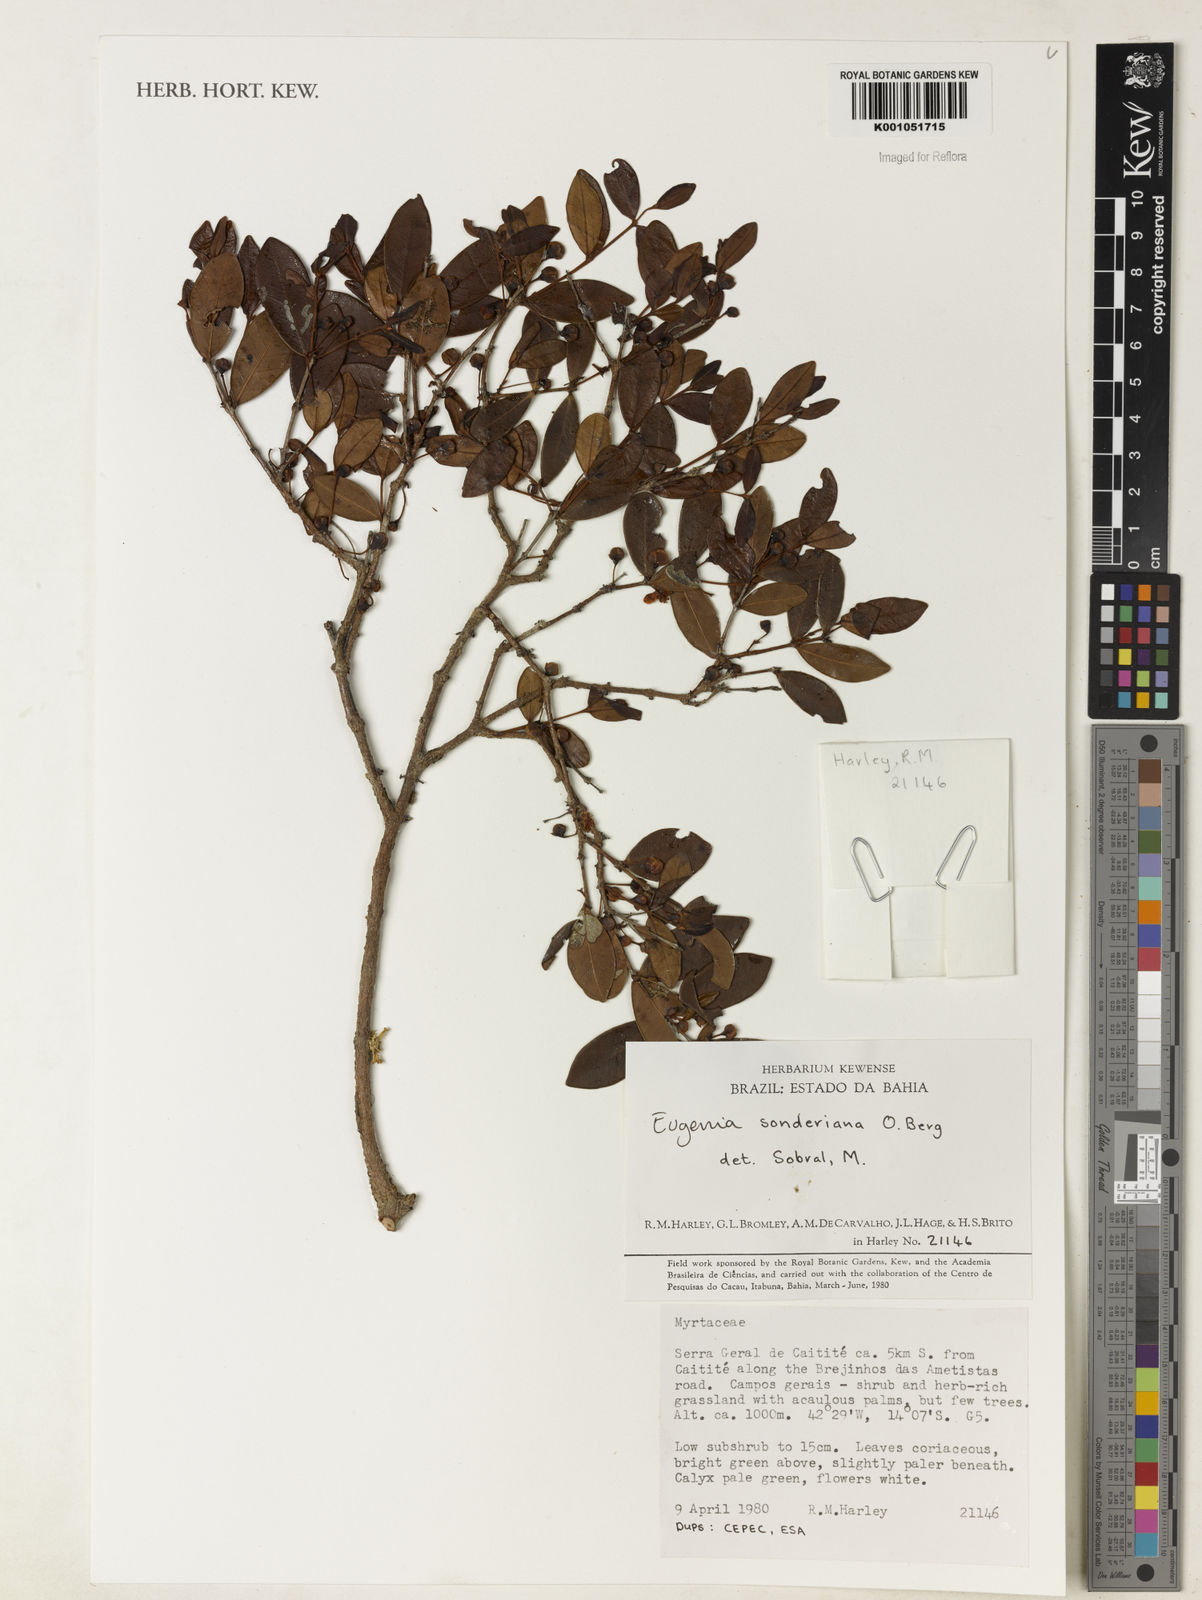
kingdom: Plantae
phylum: Tracheophyta
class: Magnoliopsida
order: Myrtales
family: Myrtaceae
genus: Eugenia
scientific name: Eugenia sonderiana
